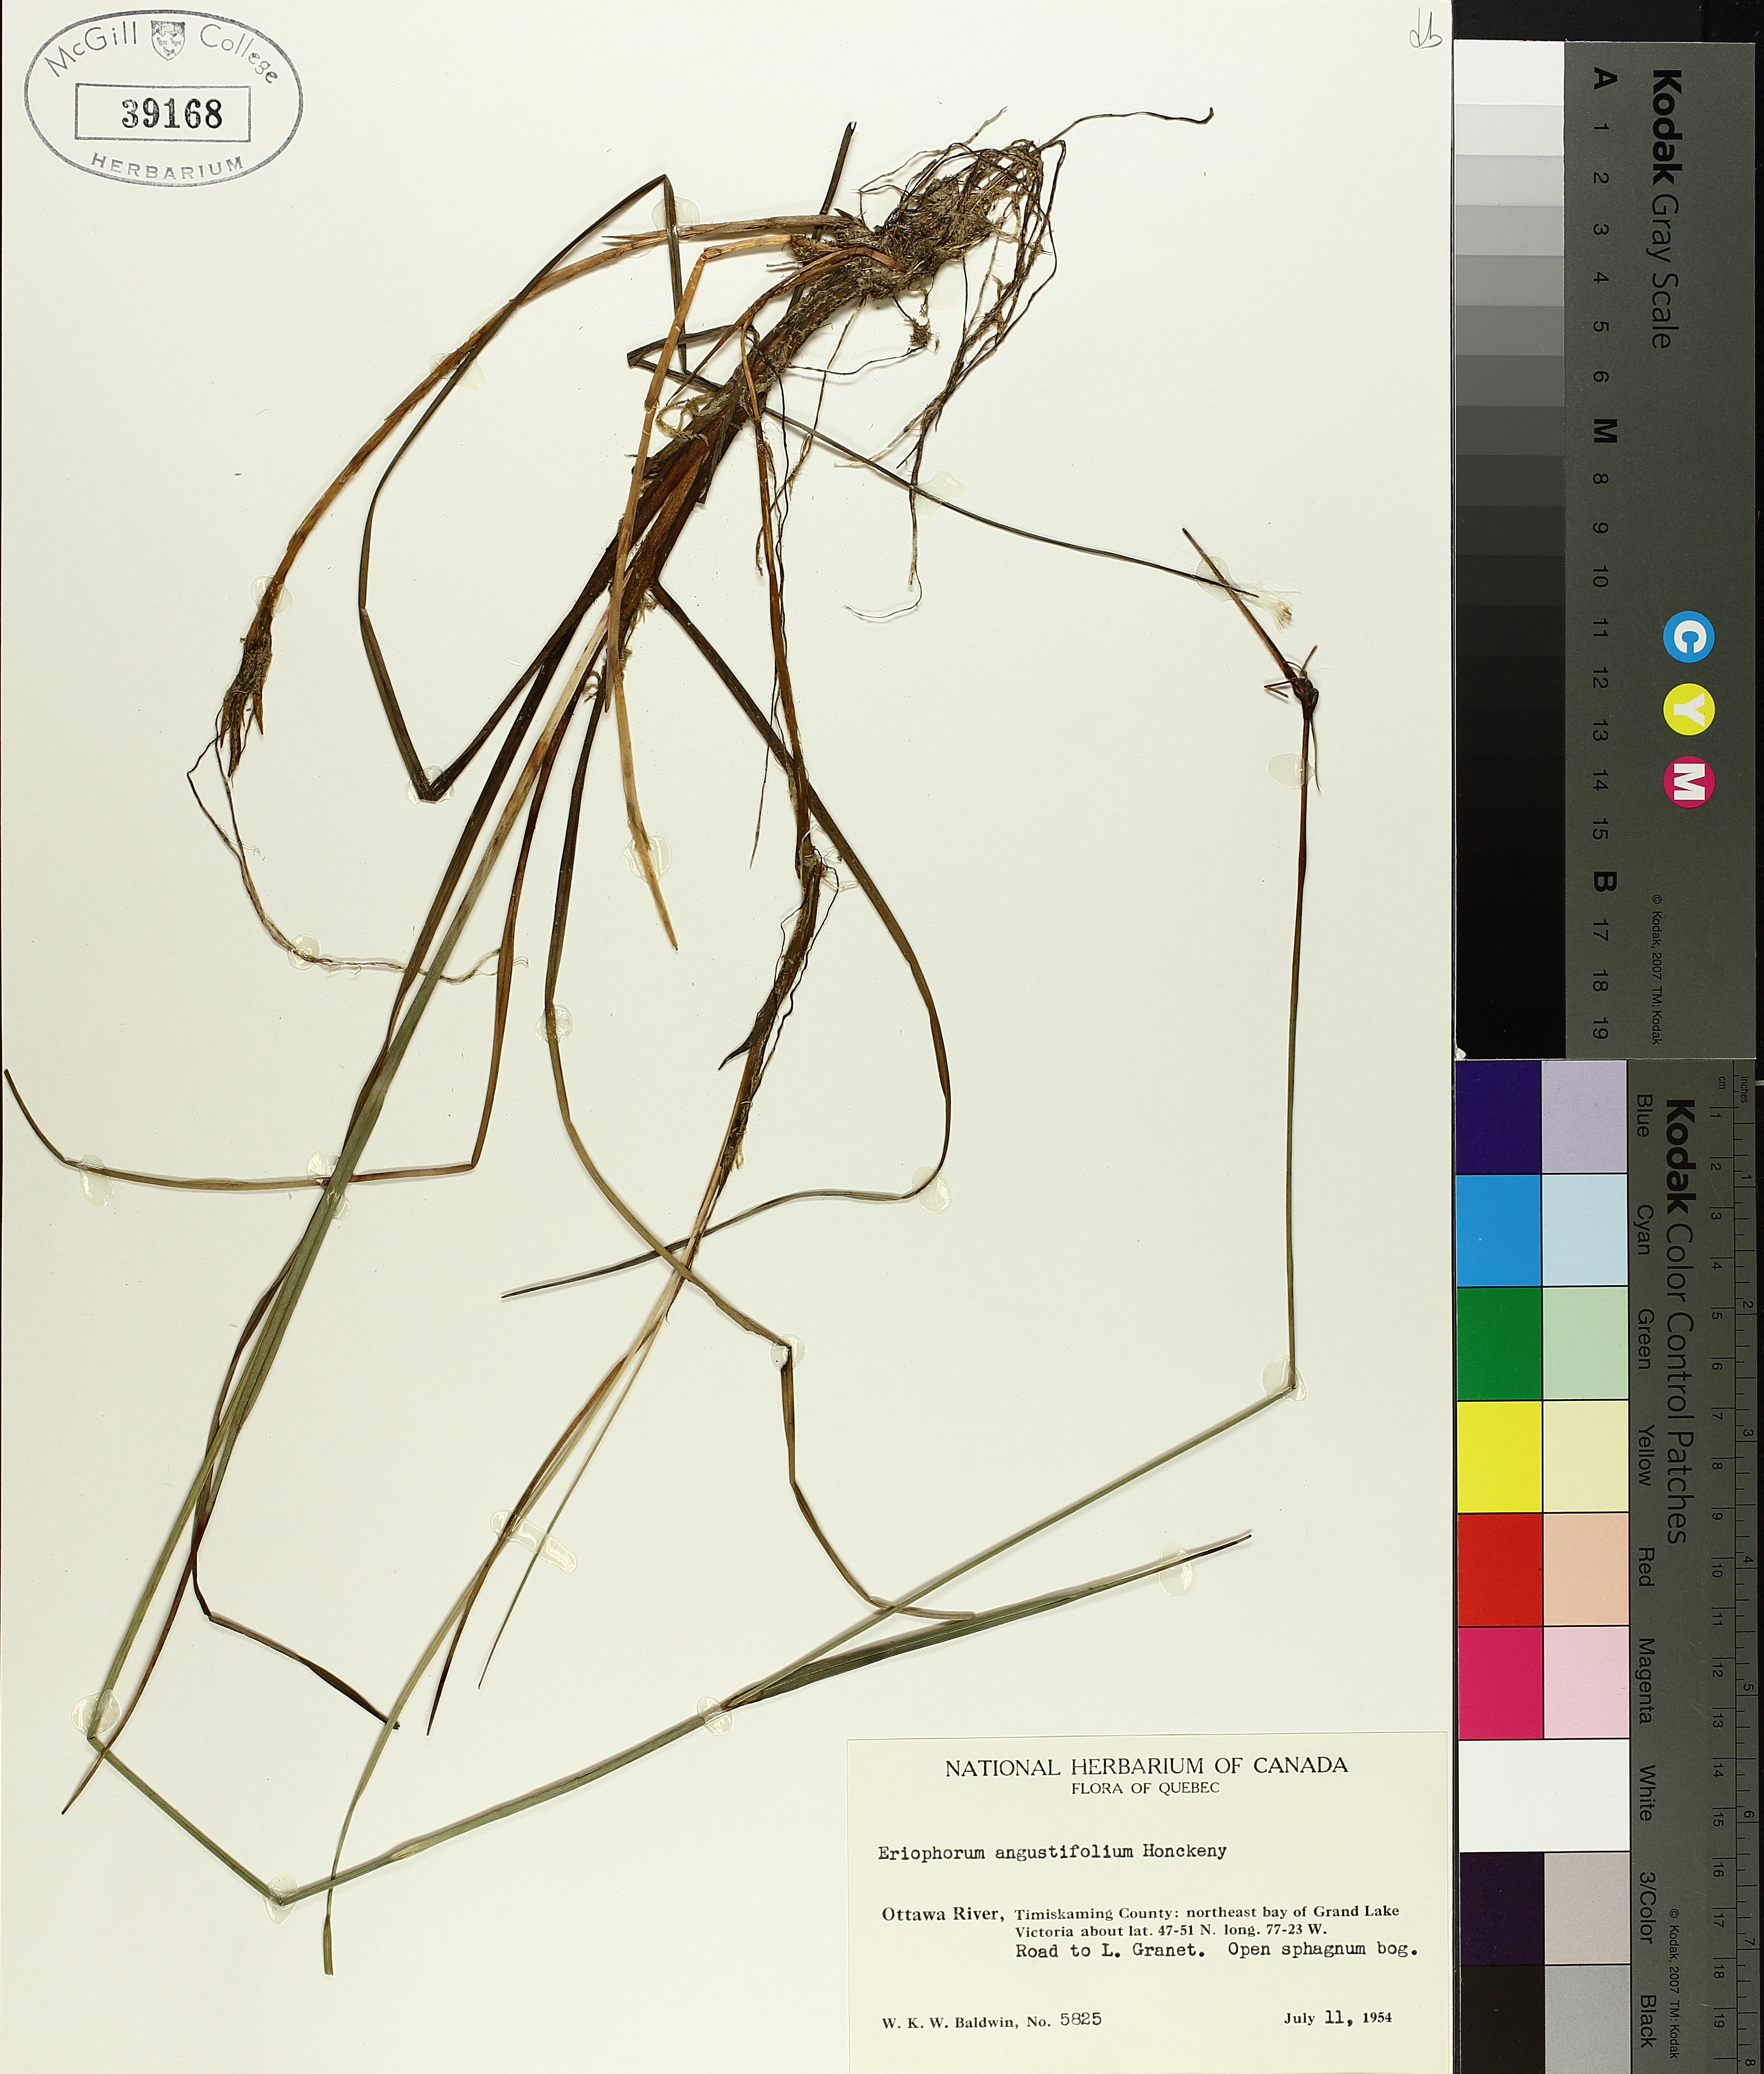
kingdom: Plantae
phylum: Tracheophyta
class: Liliopsida
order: Poales
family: Cyperaceae
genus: Eriophorum
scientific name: Eriophorum triste
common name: Tall cottongrass
